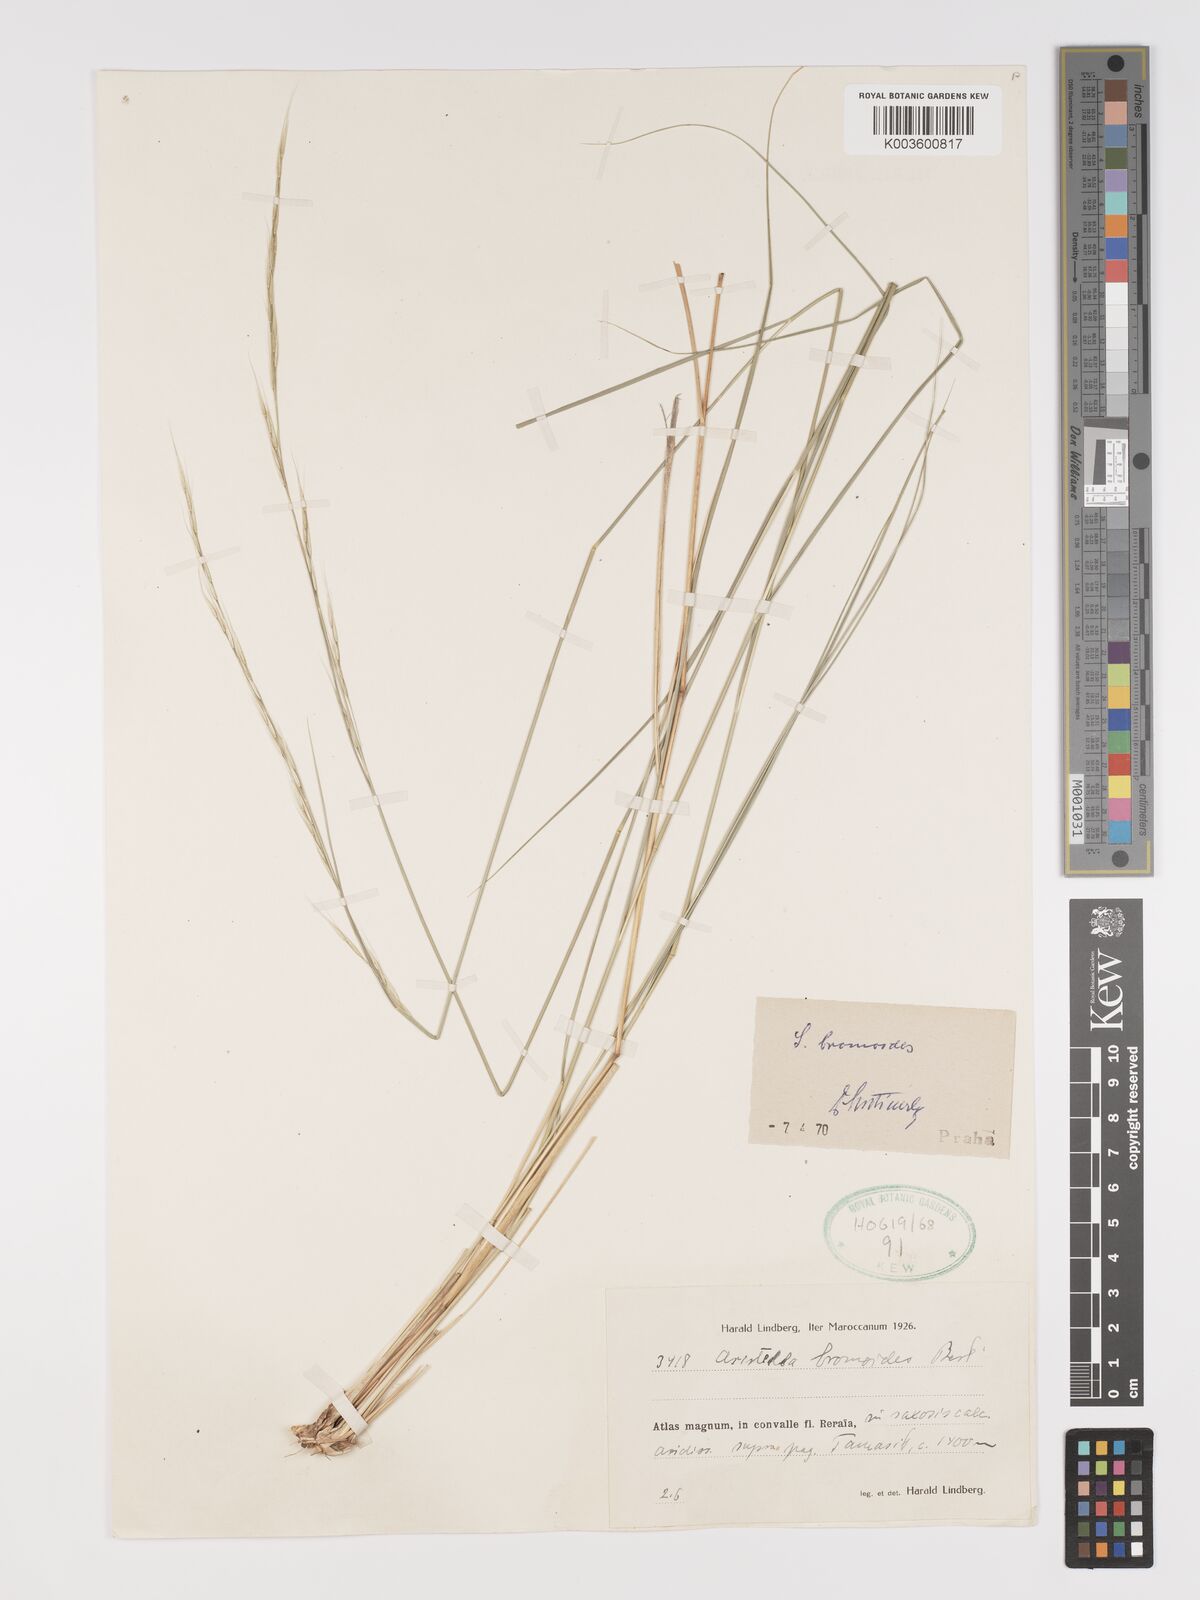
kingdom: Plantae
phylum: Tracheophyta
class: Liliopsida
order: Poales
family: Poaceae
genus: Achnatherum
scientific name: Achnatherum bromoides
